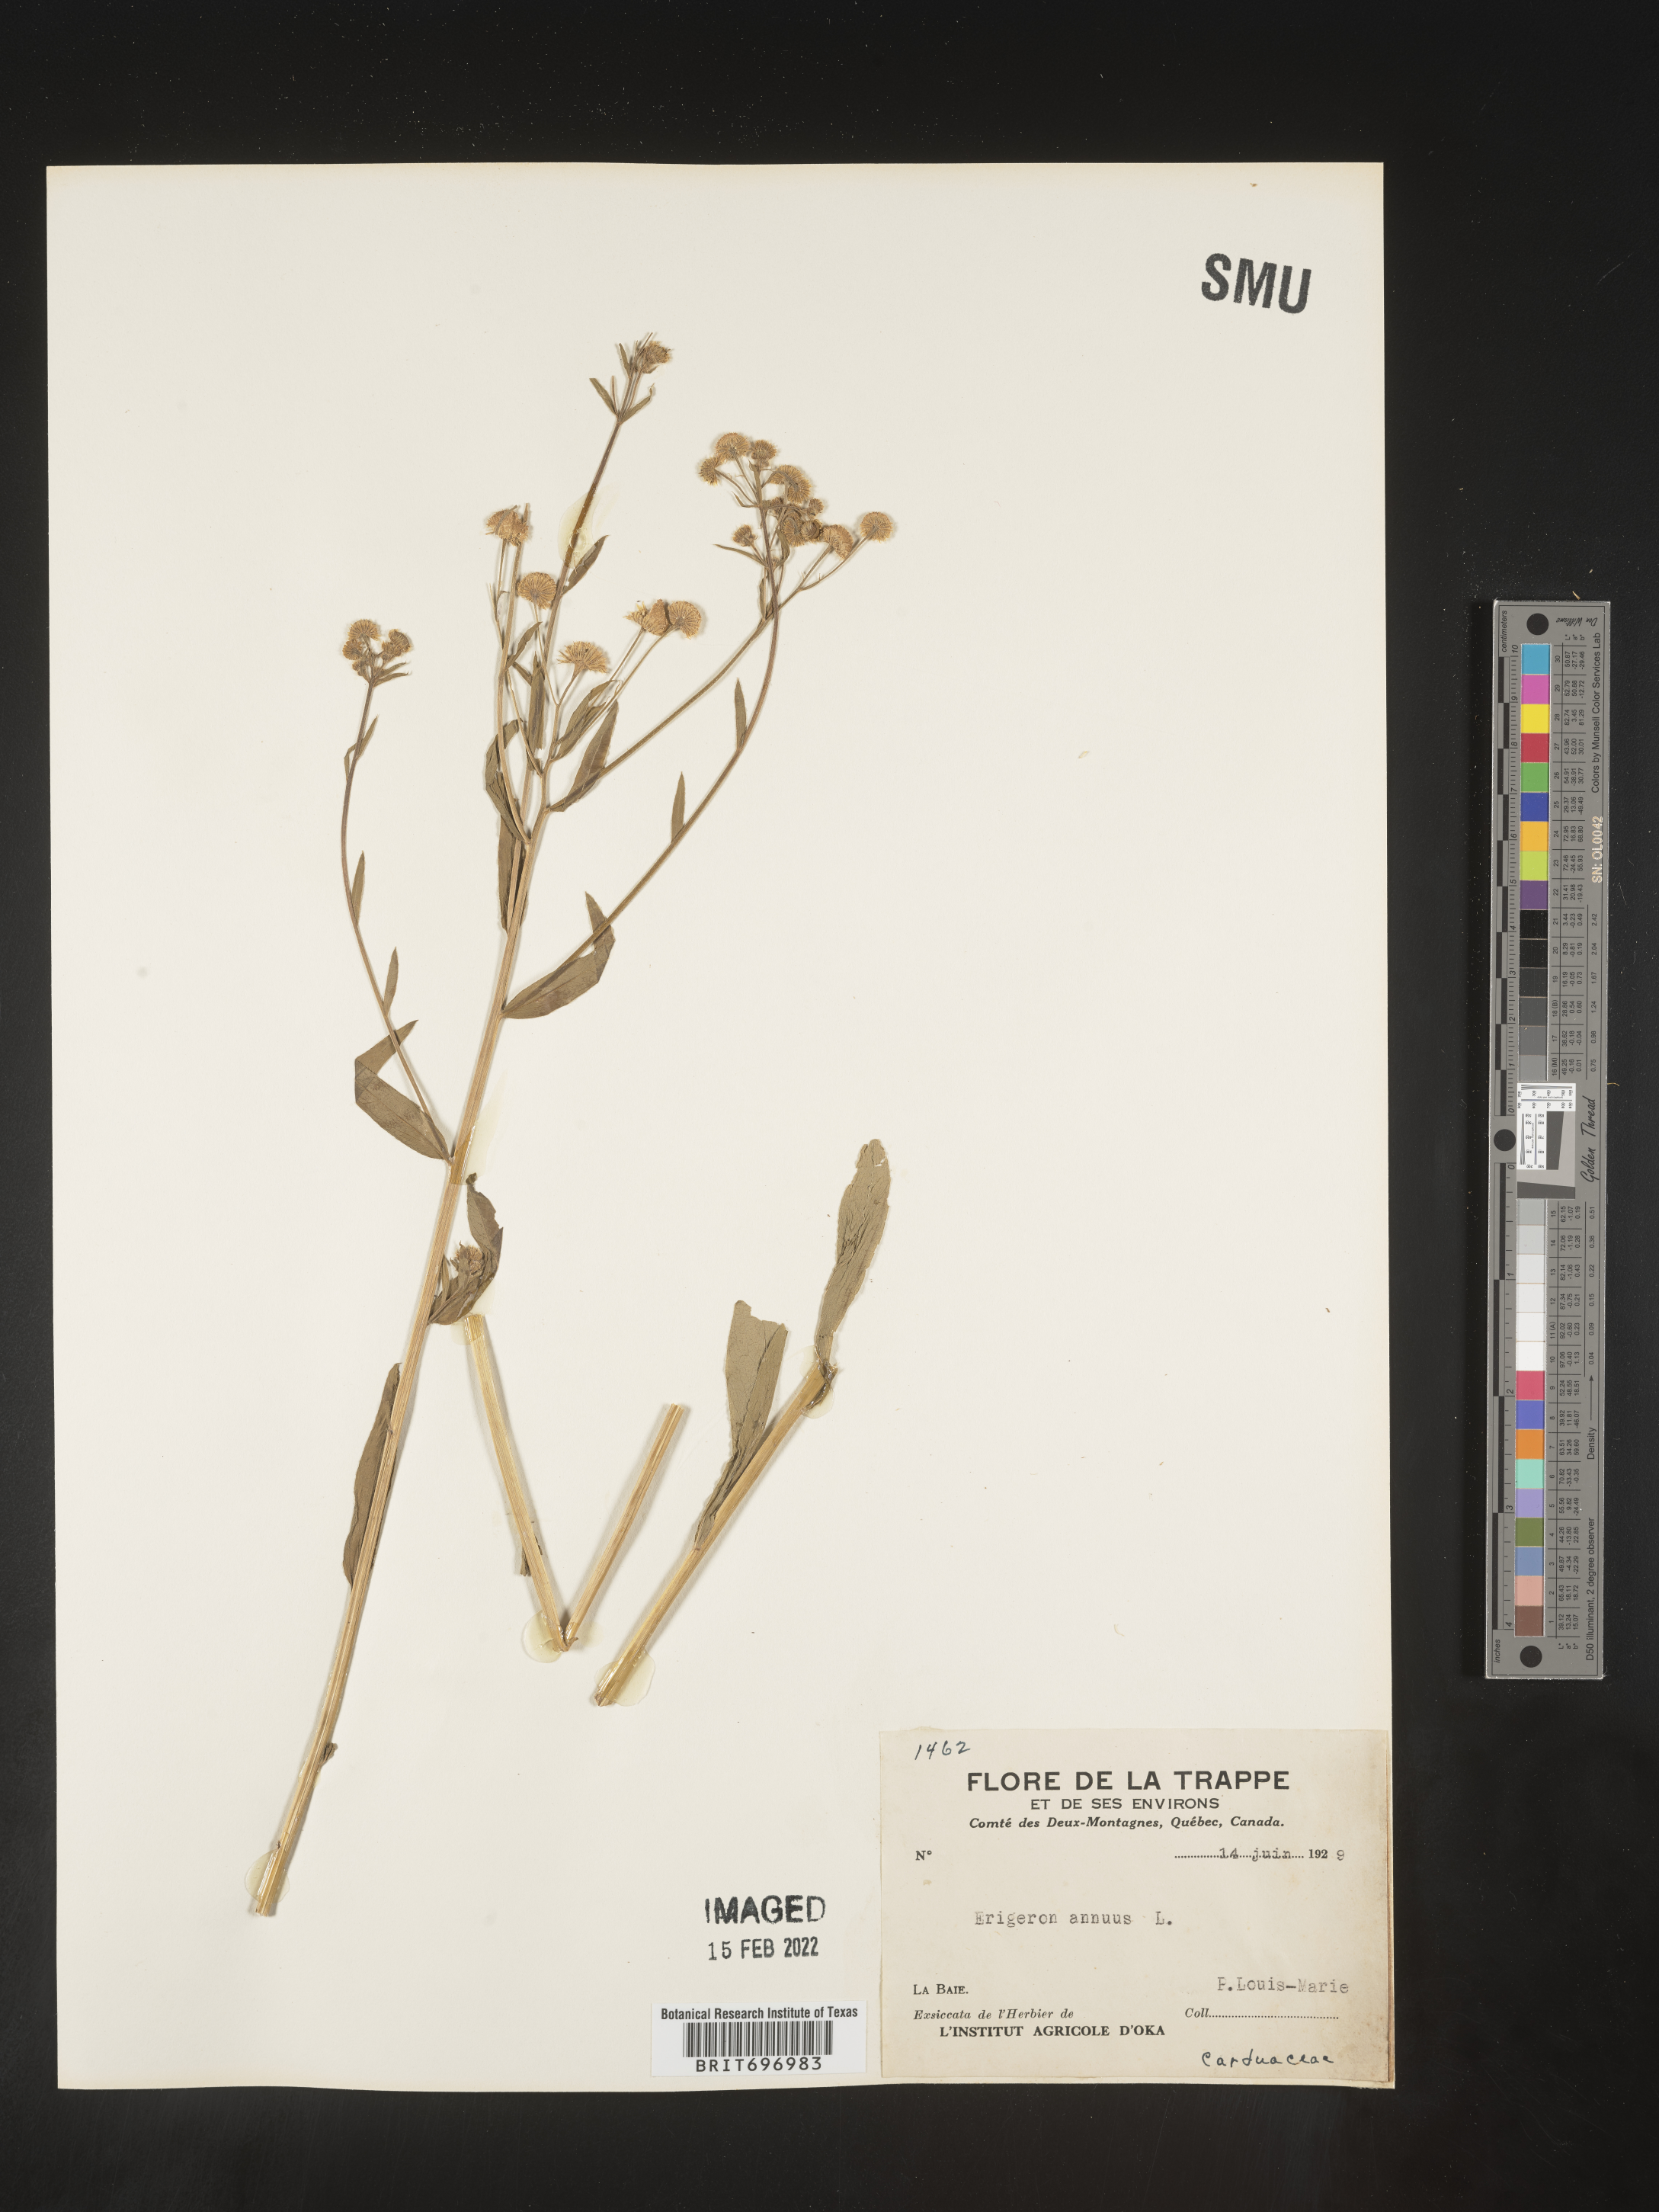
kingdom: Plantae
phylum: Tracheophyta
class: Magnoliopsida
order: Asterales
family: Asteraceae
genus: Erigeron
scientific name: Erigeron annuus
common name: Tall fleabane
